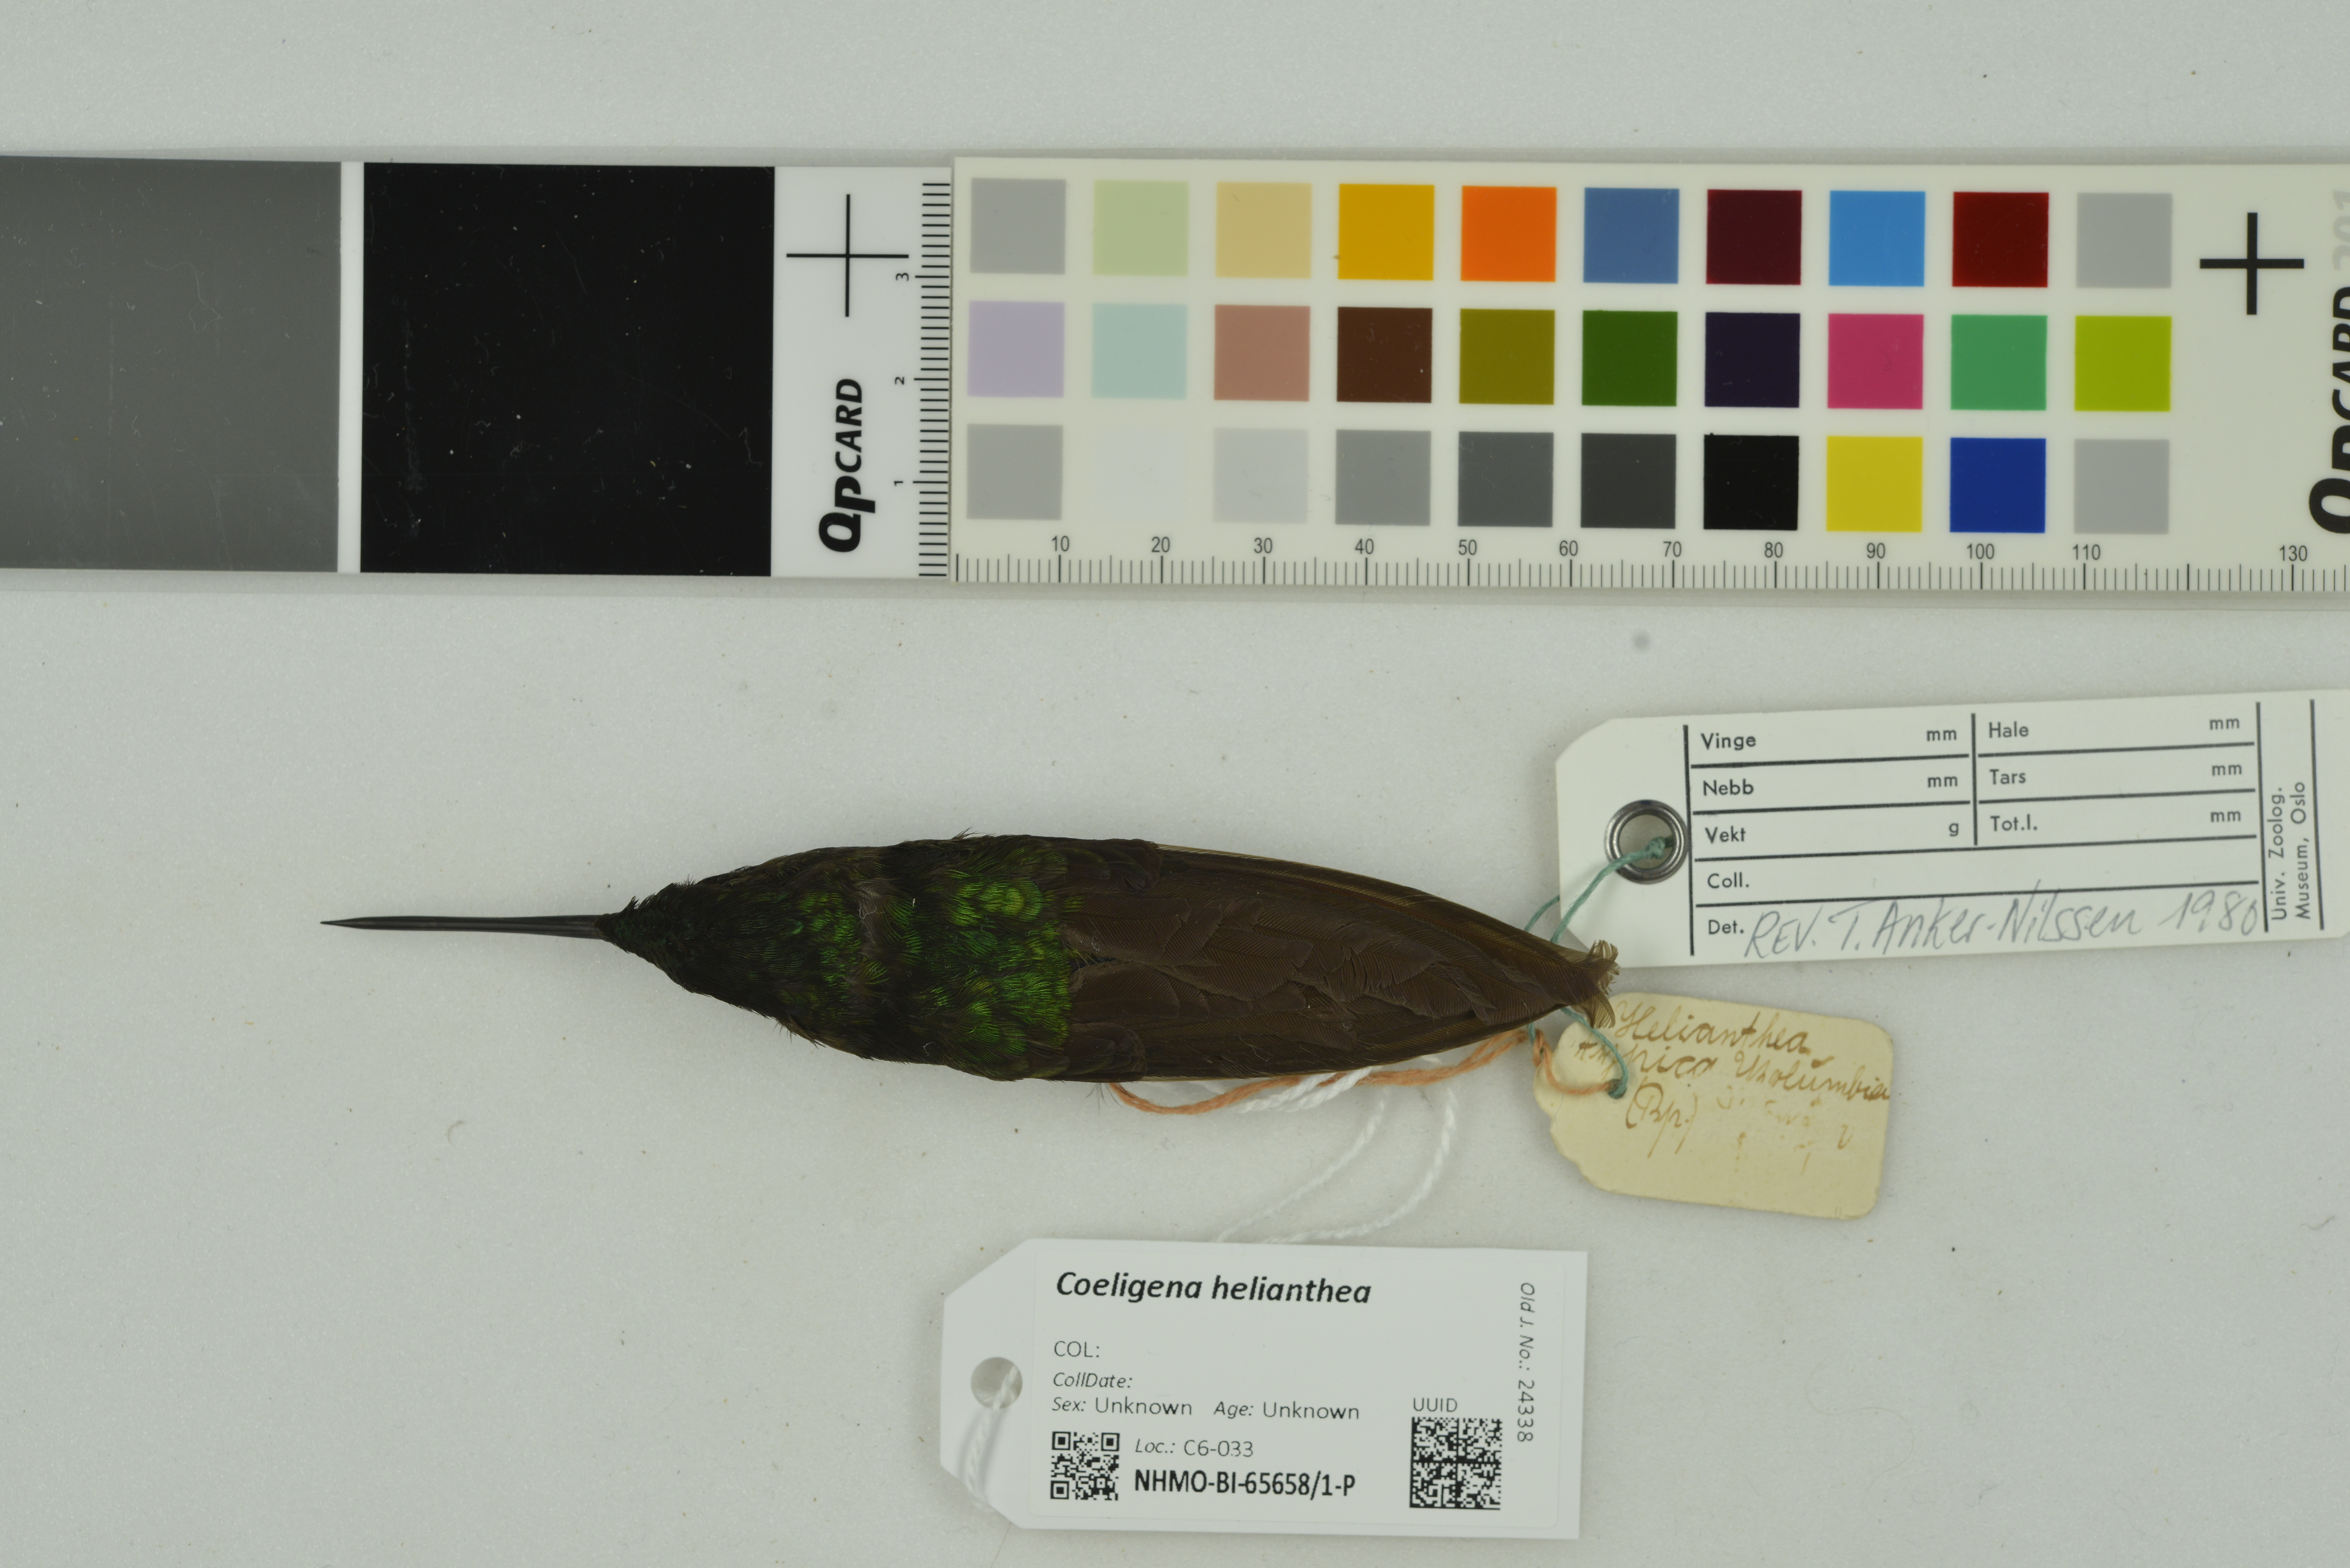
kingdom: Animalia
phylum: Chordata
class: Aves
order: Apodiformes
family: Trochilidae
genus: Coeligena
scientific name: Coeligena helianthea
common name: Blue-throated starfrontlet
